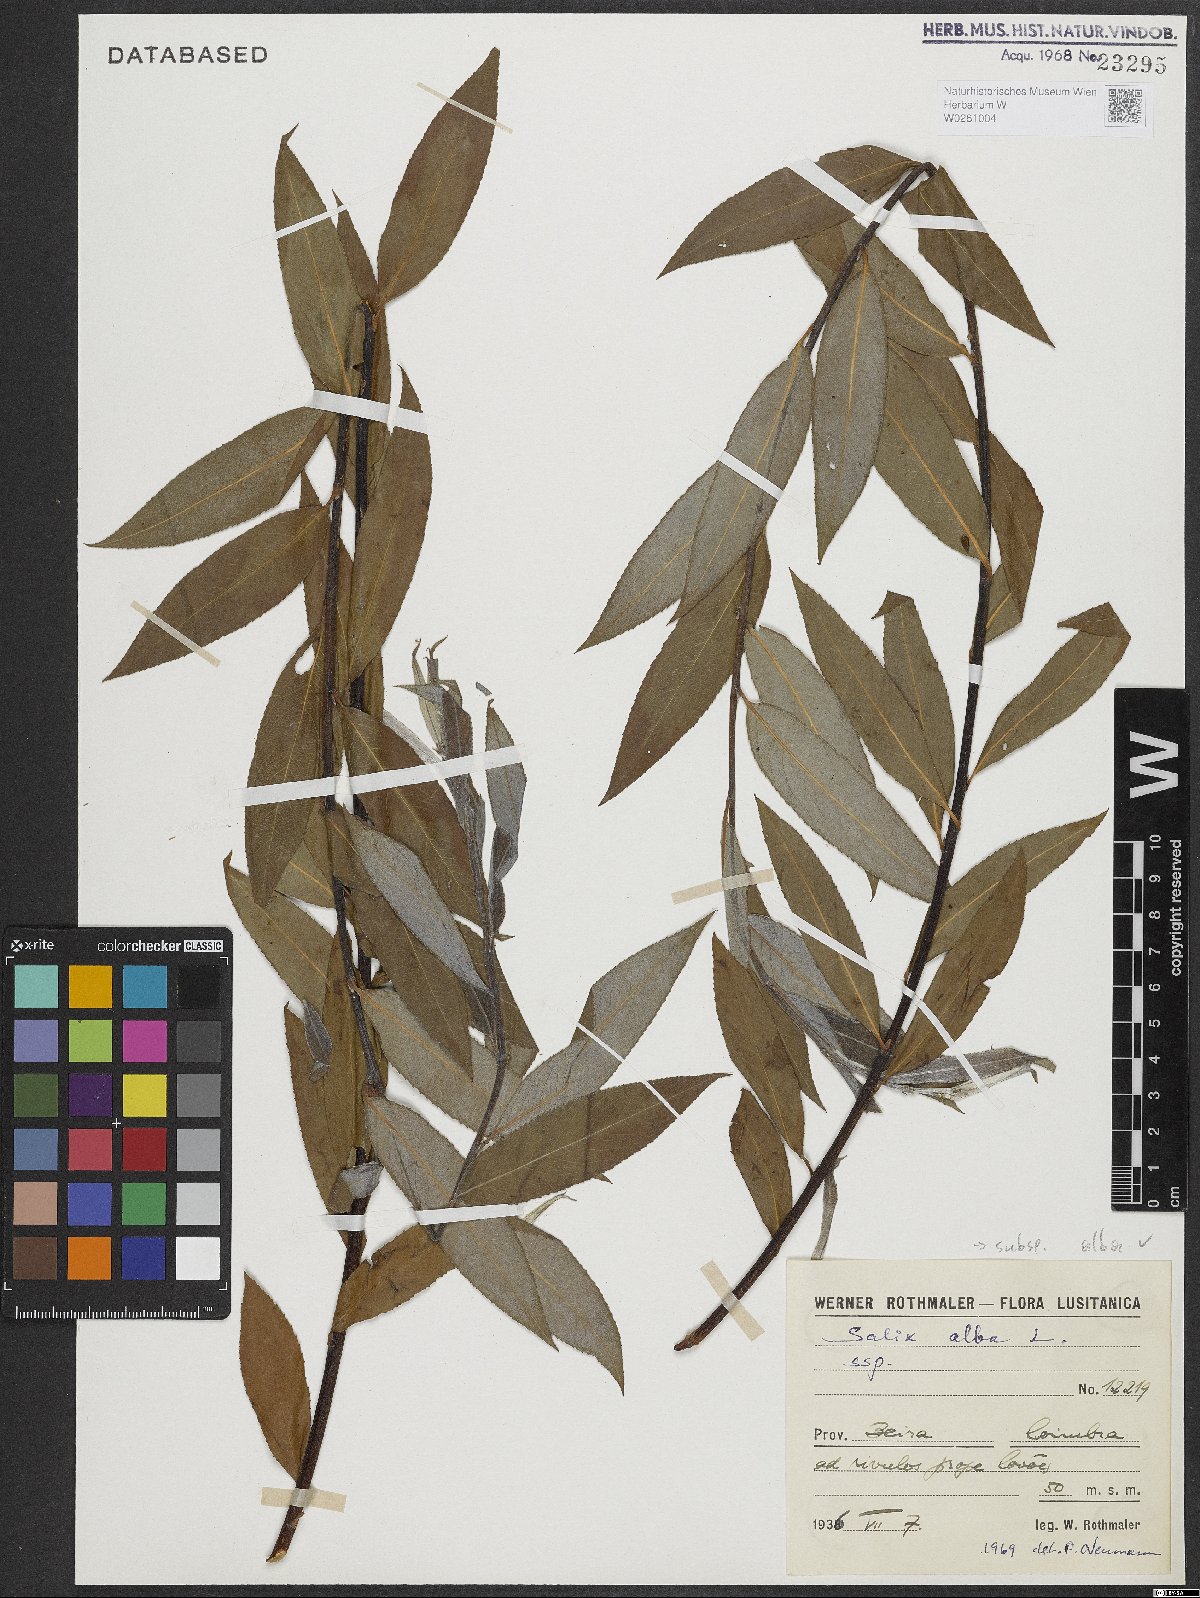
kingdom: Plantae
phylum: Tracheophyta
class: Magnoliopsida
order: Malpighiales
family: Salicaceae
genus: Salix
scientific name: Salix alba
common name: White willow
